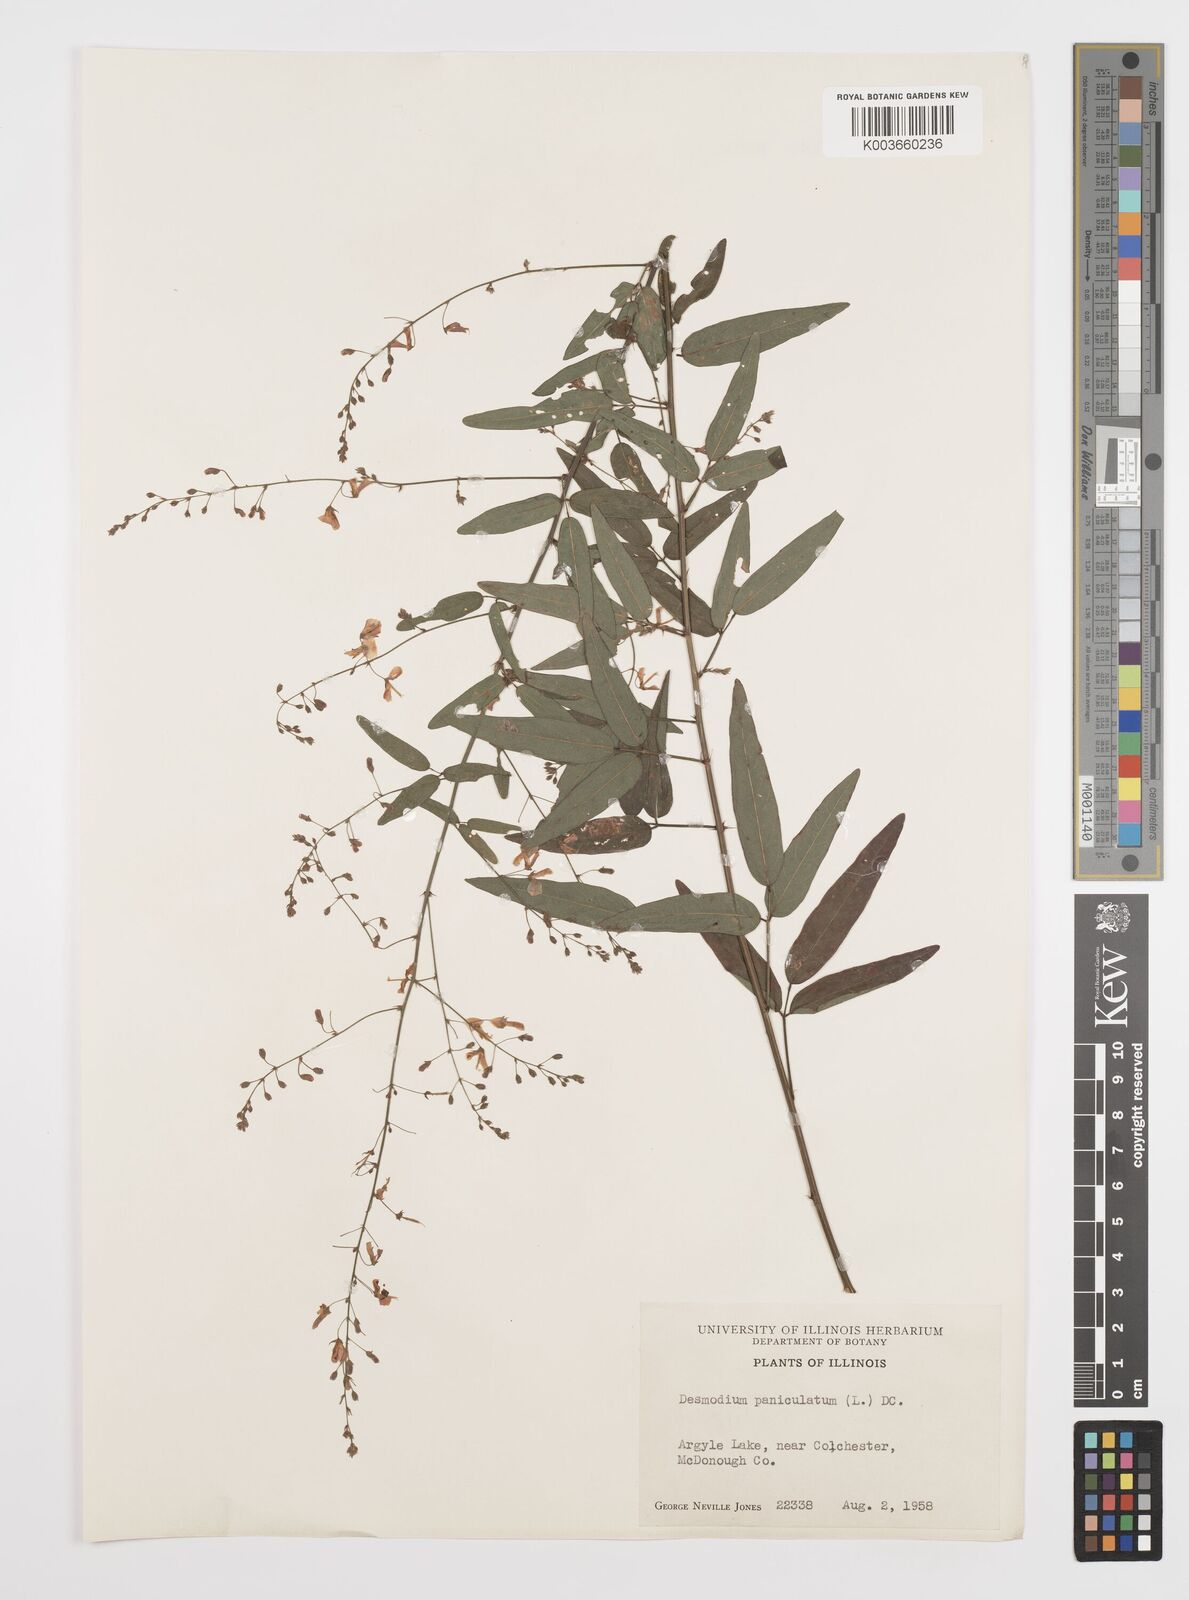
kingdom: Plantae
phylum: Tracheophyta
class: Magnoliopsida
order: Fabales
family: Fabaceae
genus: Desmodium
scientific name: Desmodium paniculatum
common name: Panicled tick-clover
